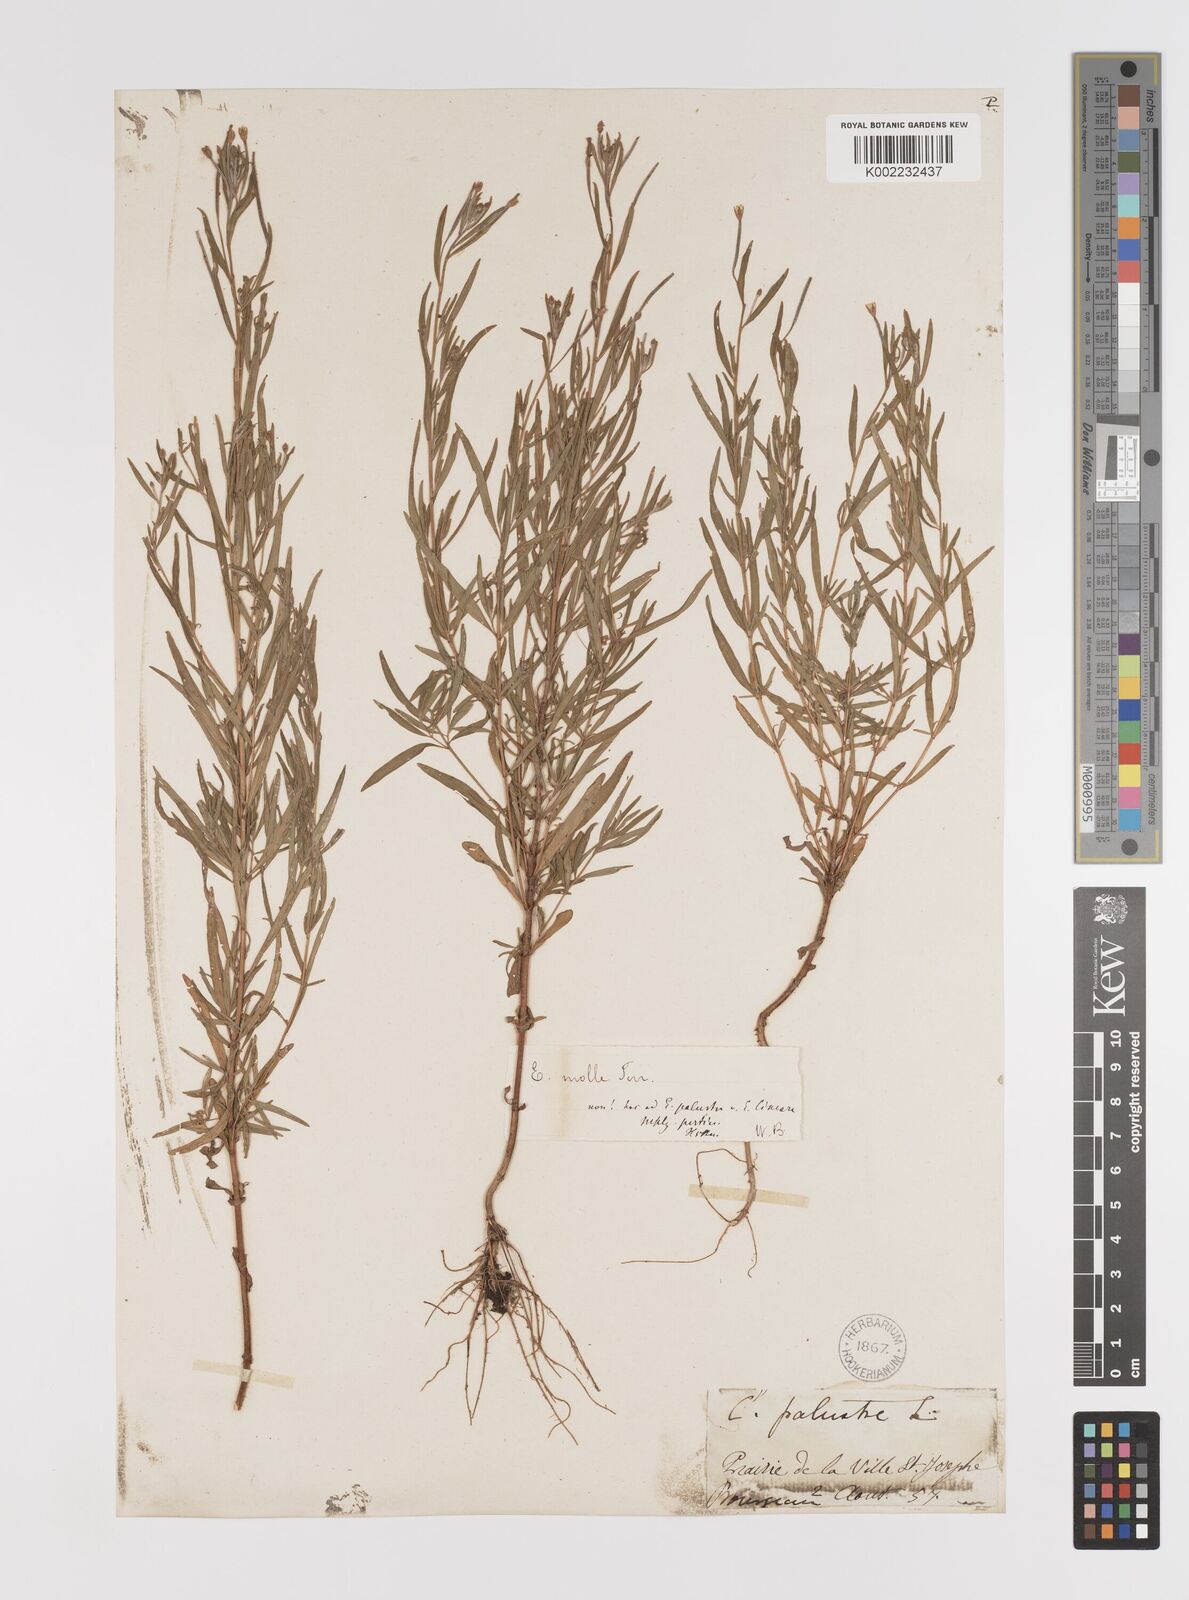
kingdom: Plantae
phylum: Tracheophyta
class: Magnoliopsida
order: Myrtales
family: Onagraceae
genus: Epilobium
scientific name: Epilobium densum
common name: Downy willowherb
